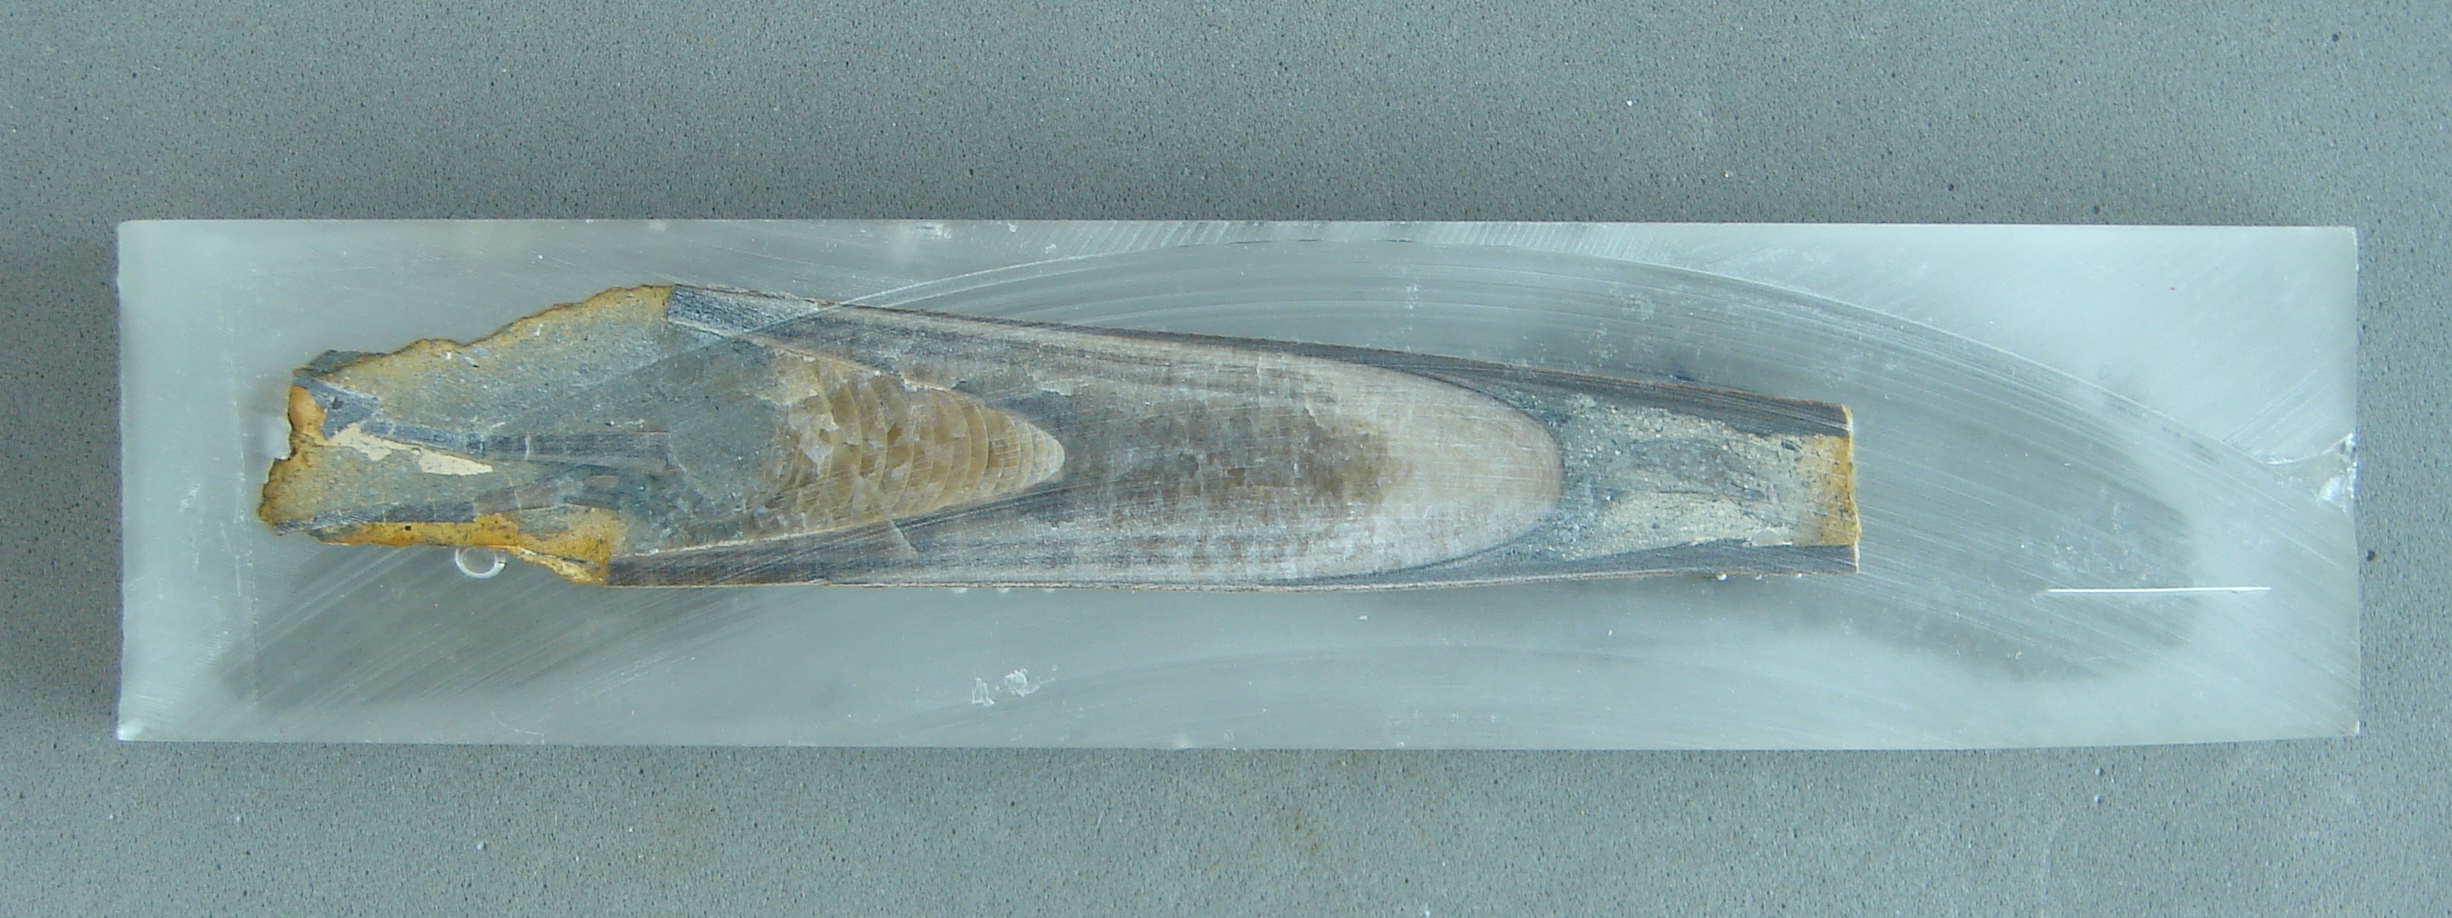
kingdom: Animalia
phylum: Mollusca
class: Cephalopoda
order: Belemnitida
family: Megateuthididae
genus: Dactyloteuthis
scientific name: Dactyloteuthis semistriata
